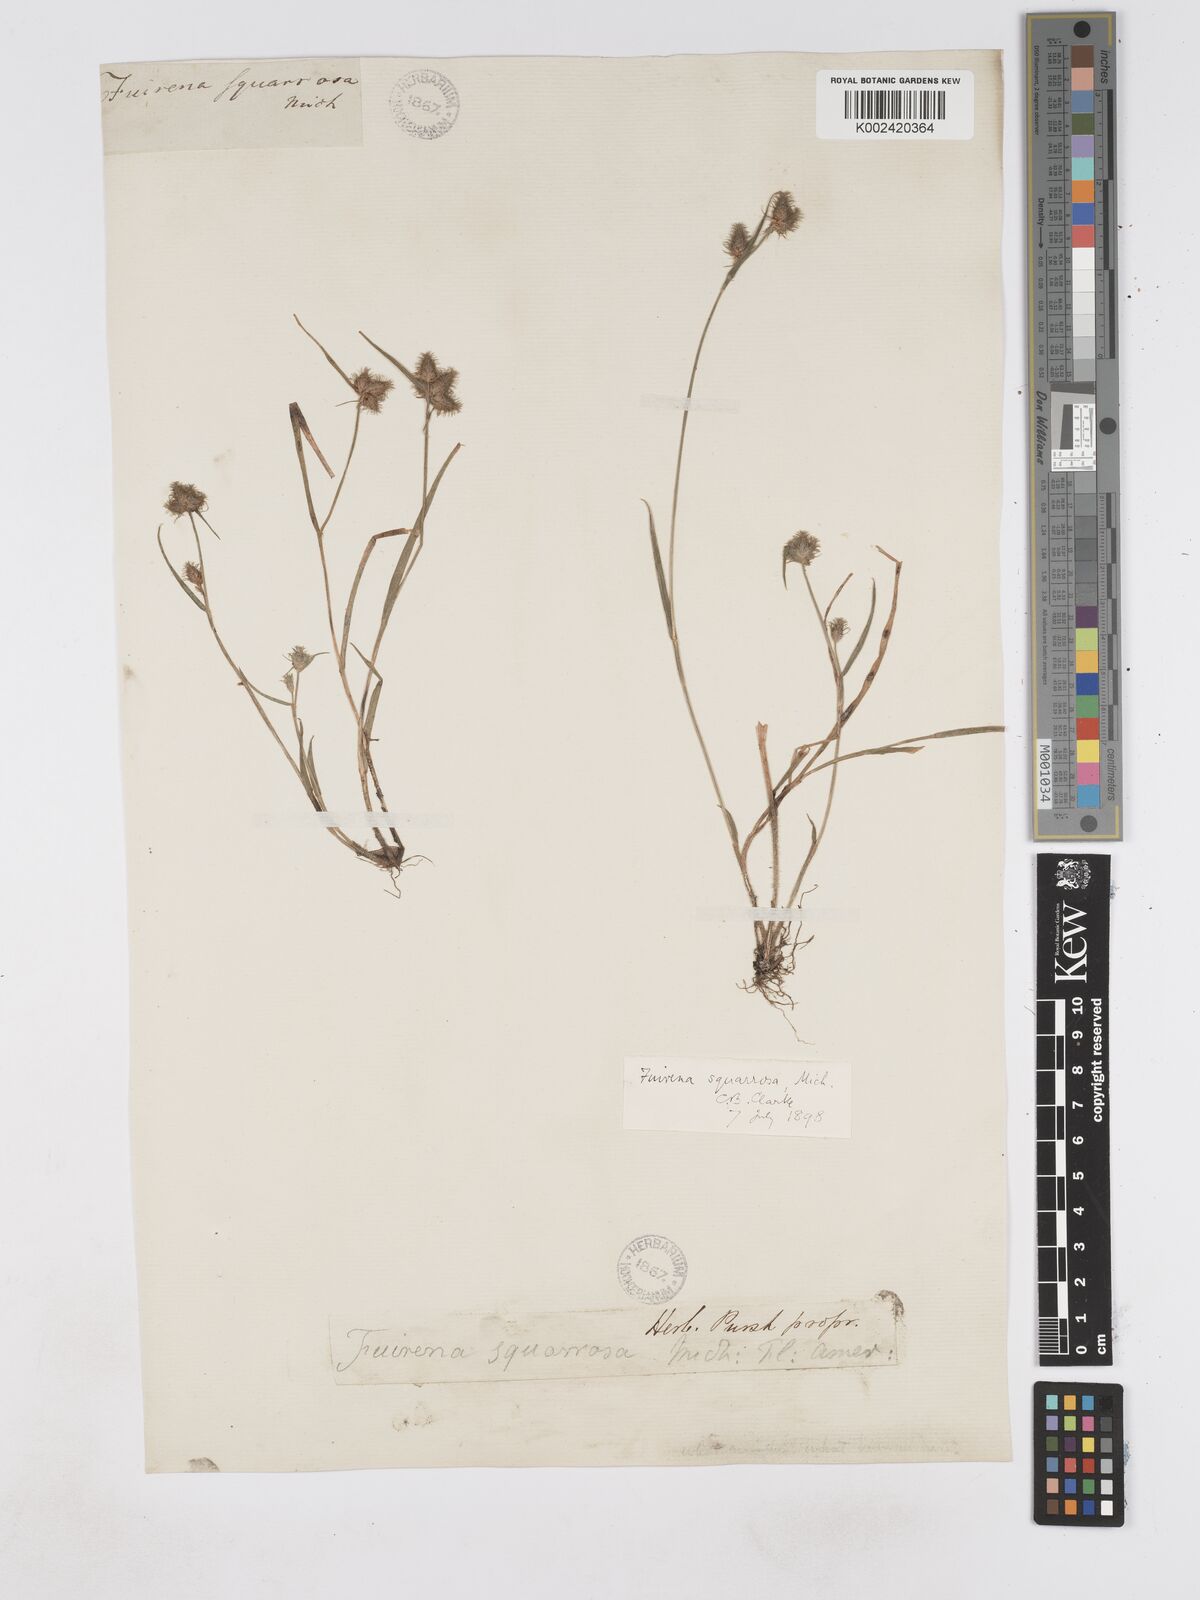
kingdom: Plantae
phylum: Tracheophyta
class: Liliopsida
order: Poales
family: Cyperaceae
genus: Fuirena
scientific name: Fuirena squarrosa
